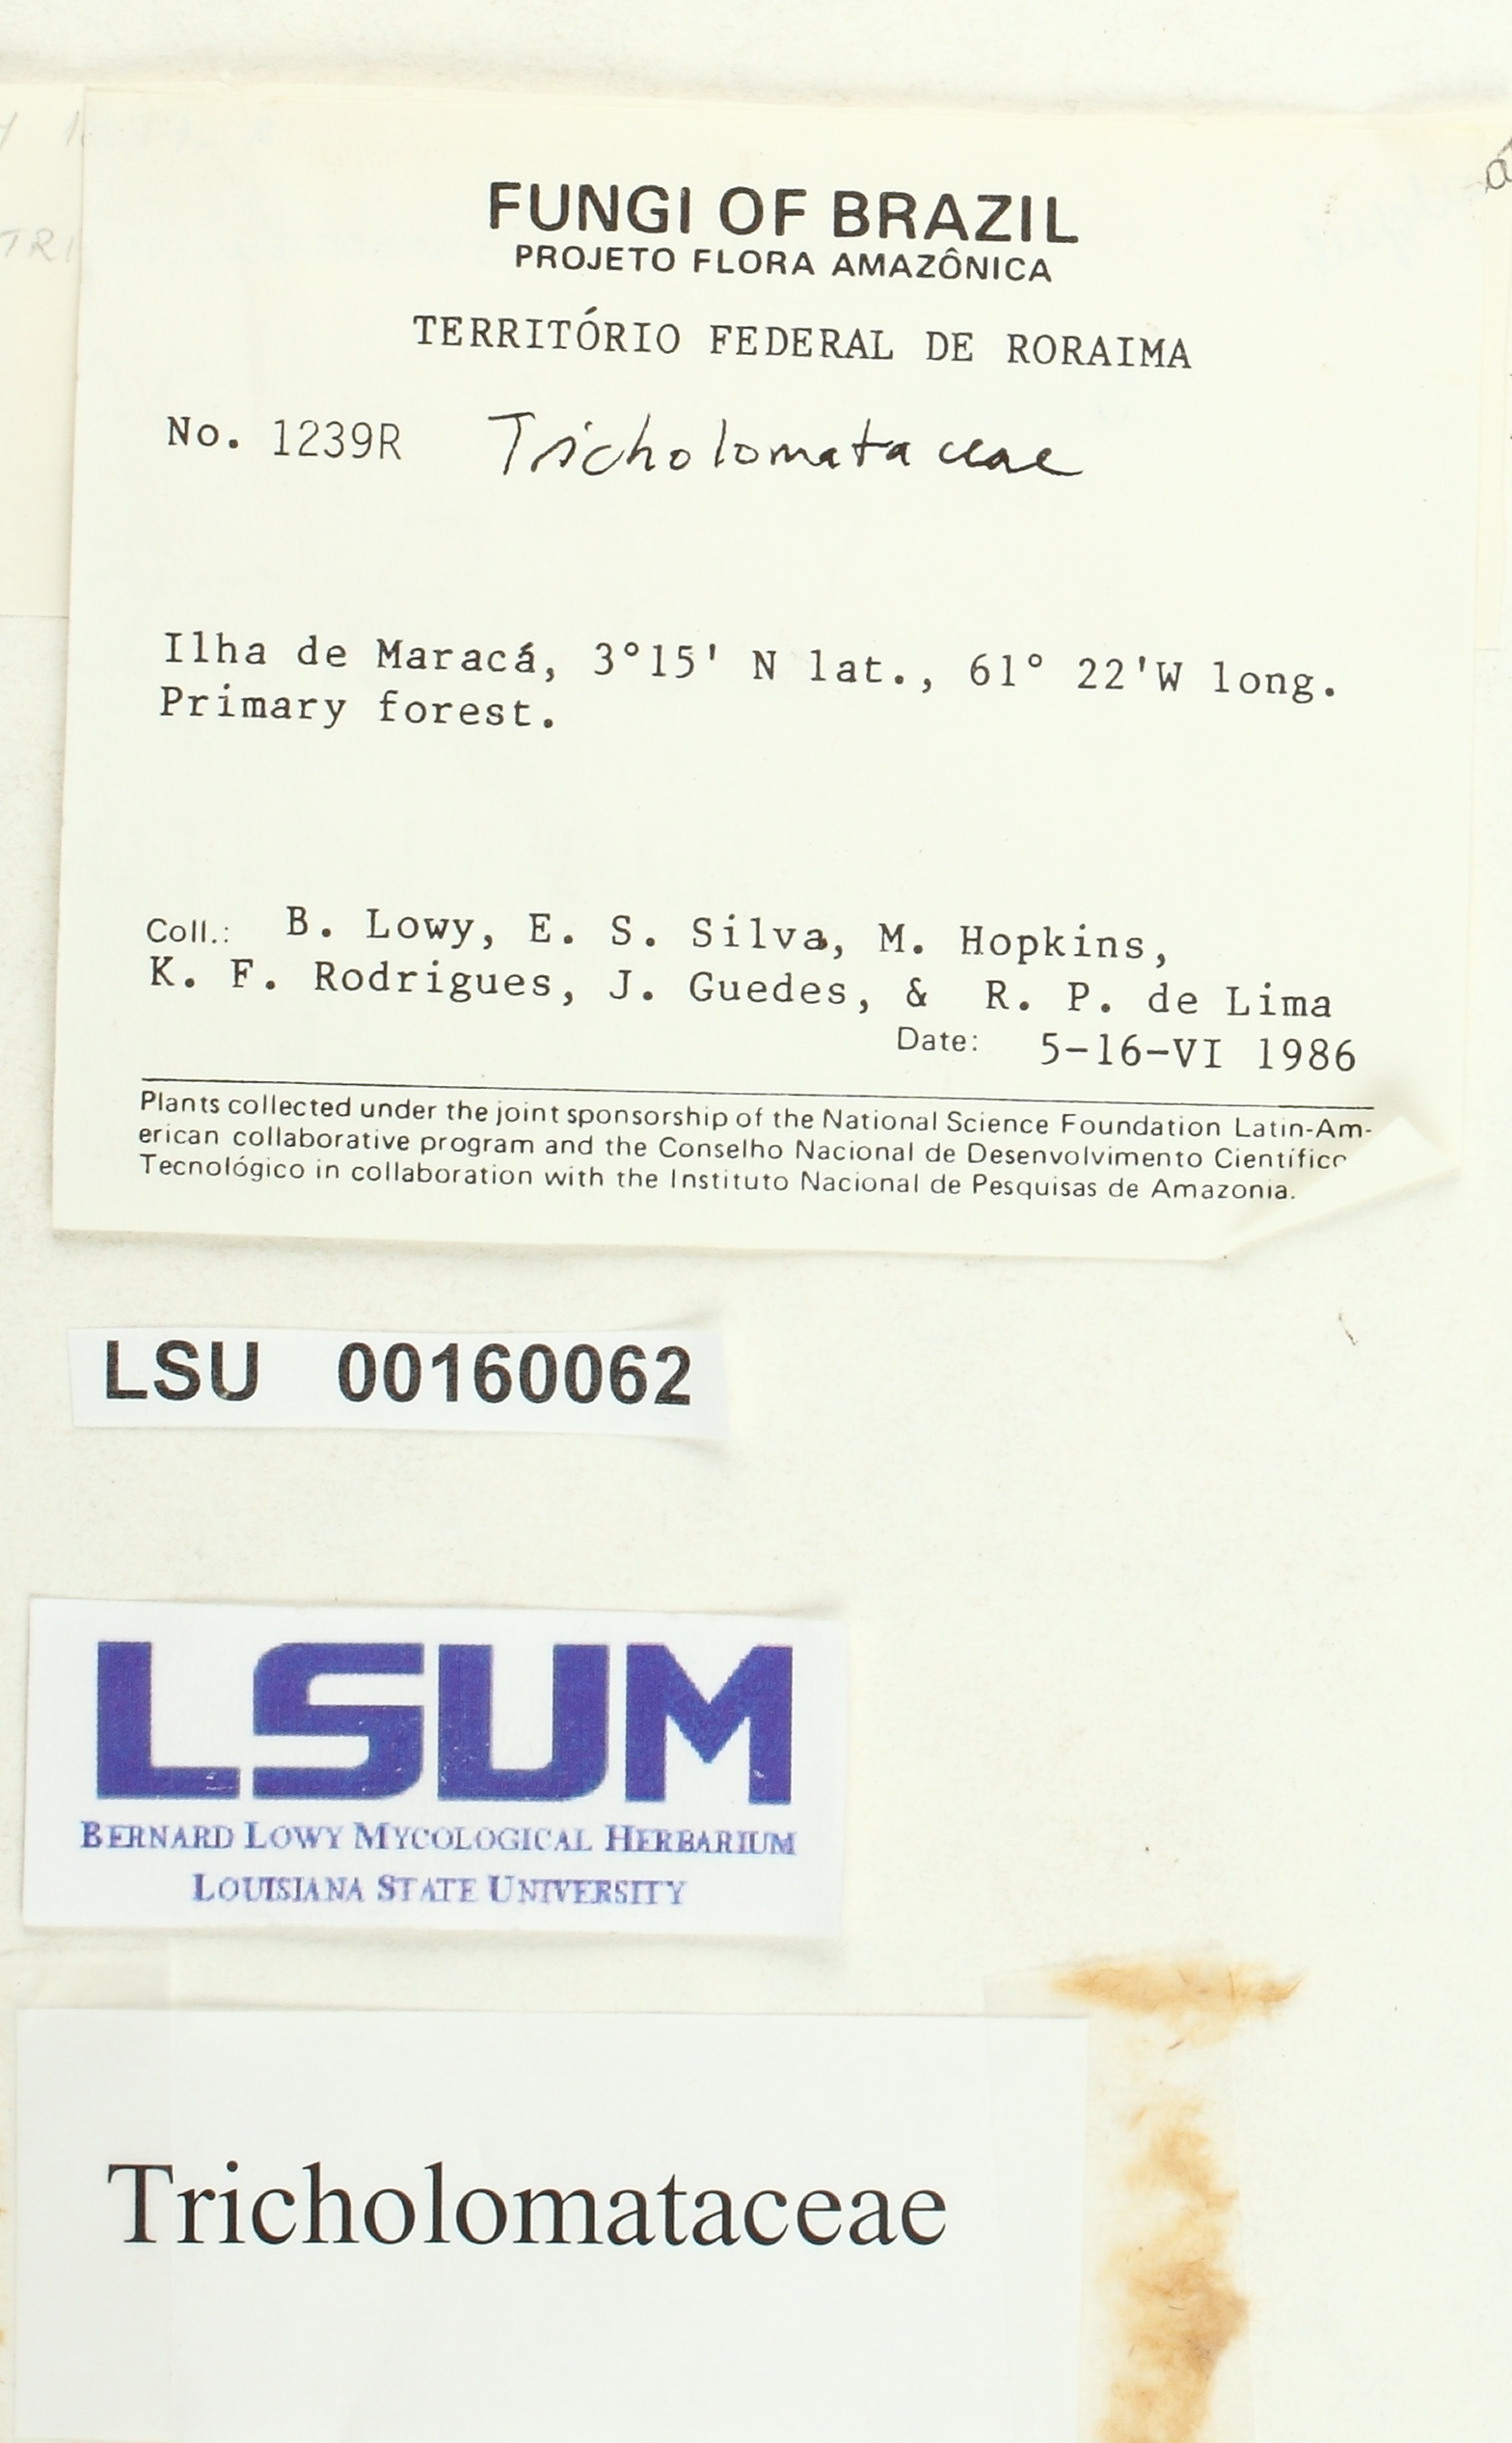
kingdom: Fungi
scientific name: Fungi
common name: Fungi
